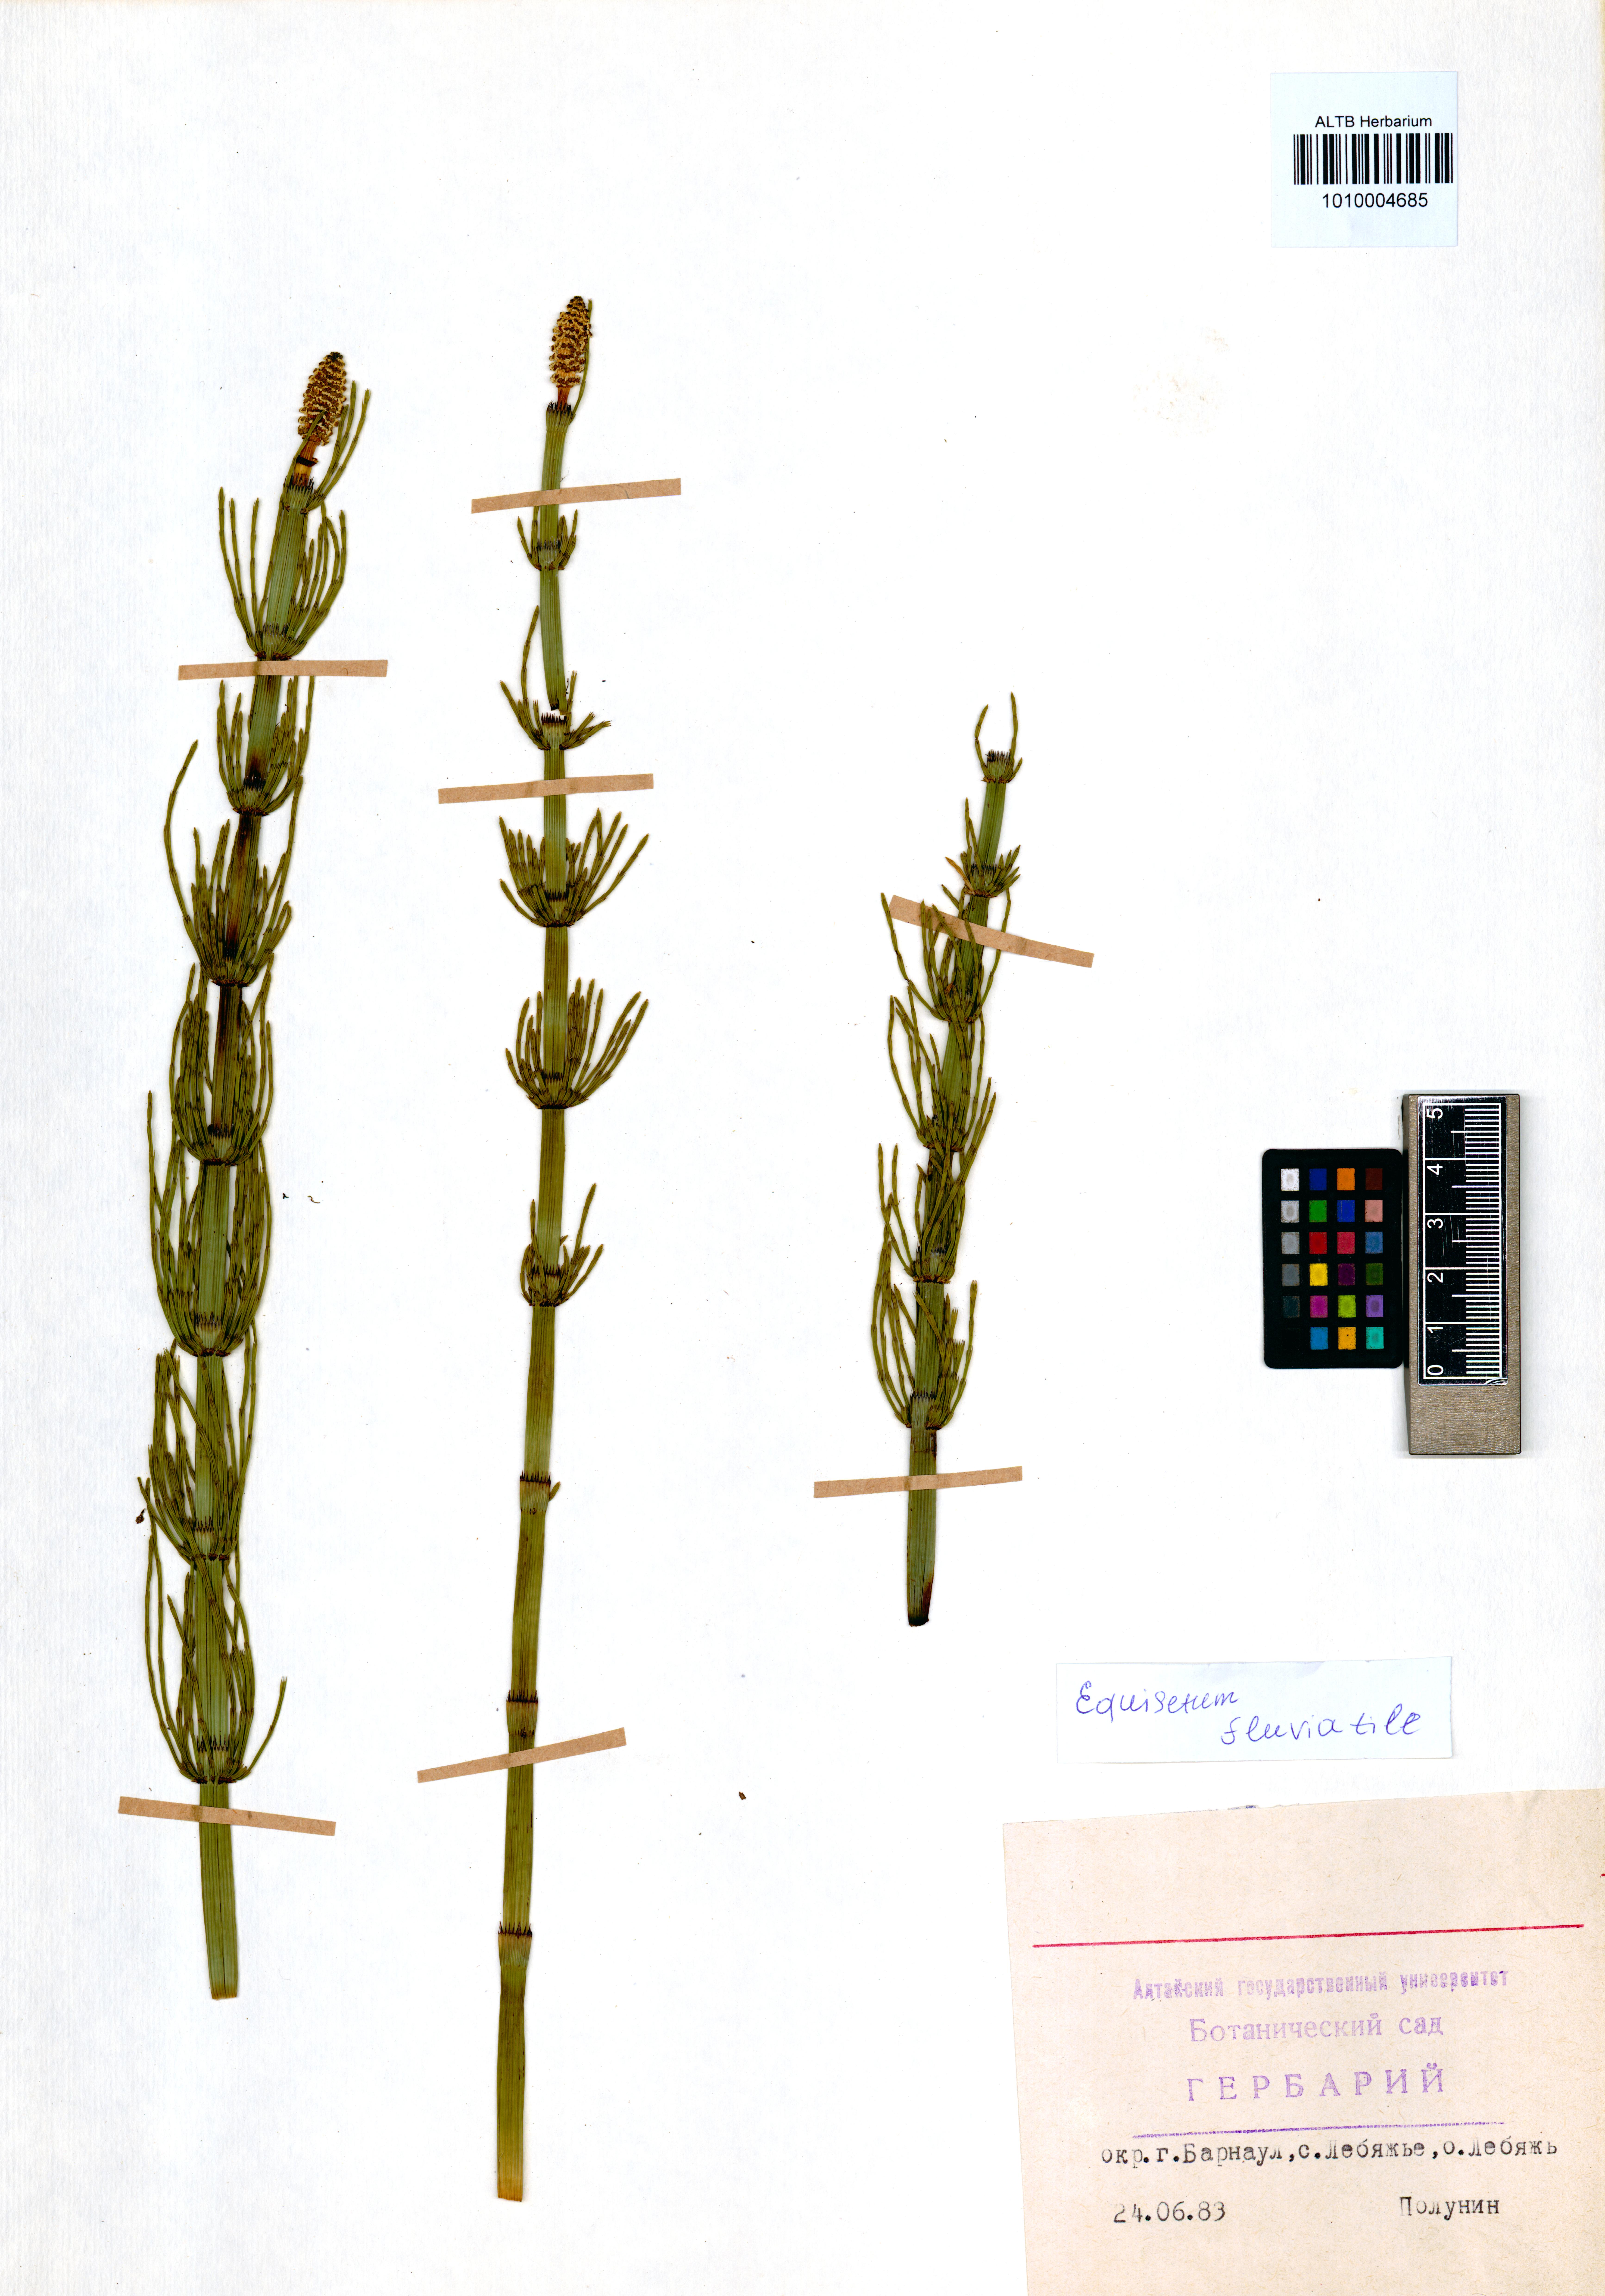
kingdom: Plantae
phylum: Tracheophyta
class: Polypodiopsida
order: Equisetales
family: Equisetaceae
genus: Equisetum
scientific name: Equisetum fluviatile
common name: Water horsetail
